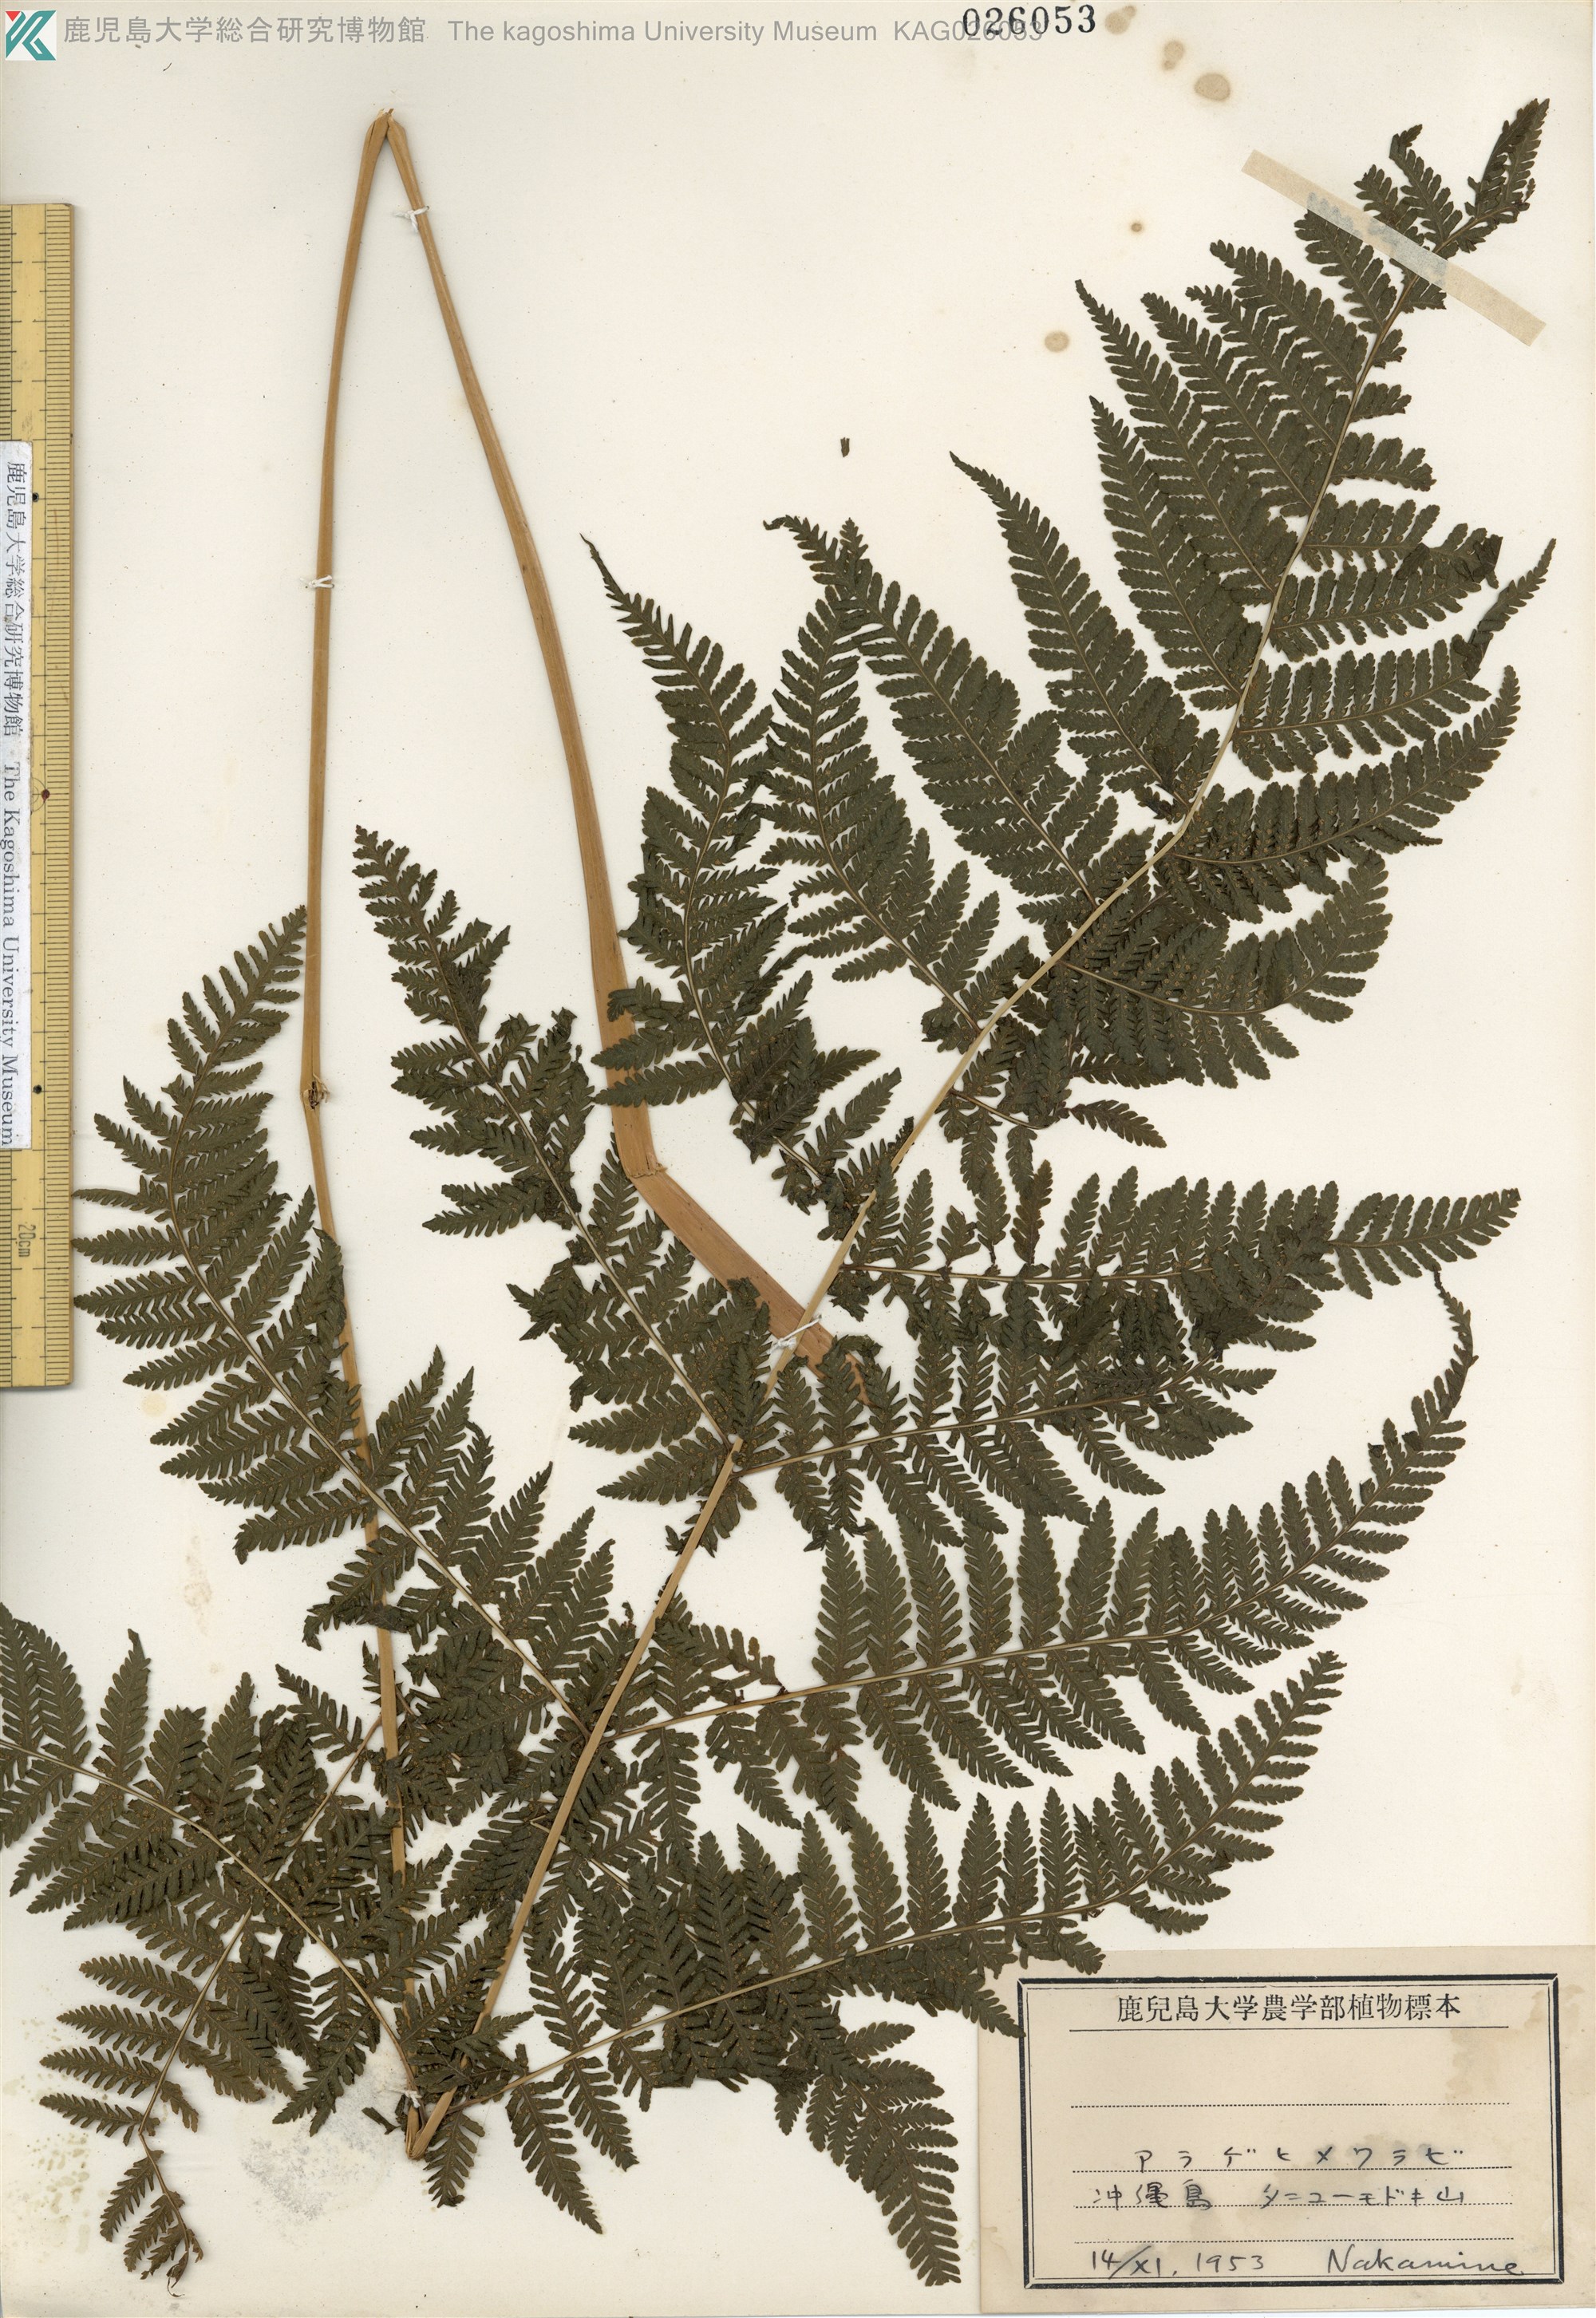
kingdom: Plantae
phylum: Tracheophyta
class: Polypodiopsida
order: Polypodiales
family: Thelypteridaceae
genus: Macrothelypteris
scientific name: Macrothelypteris oligophlebia
